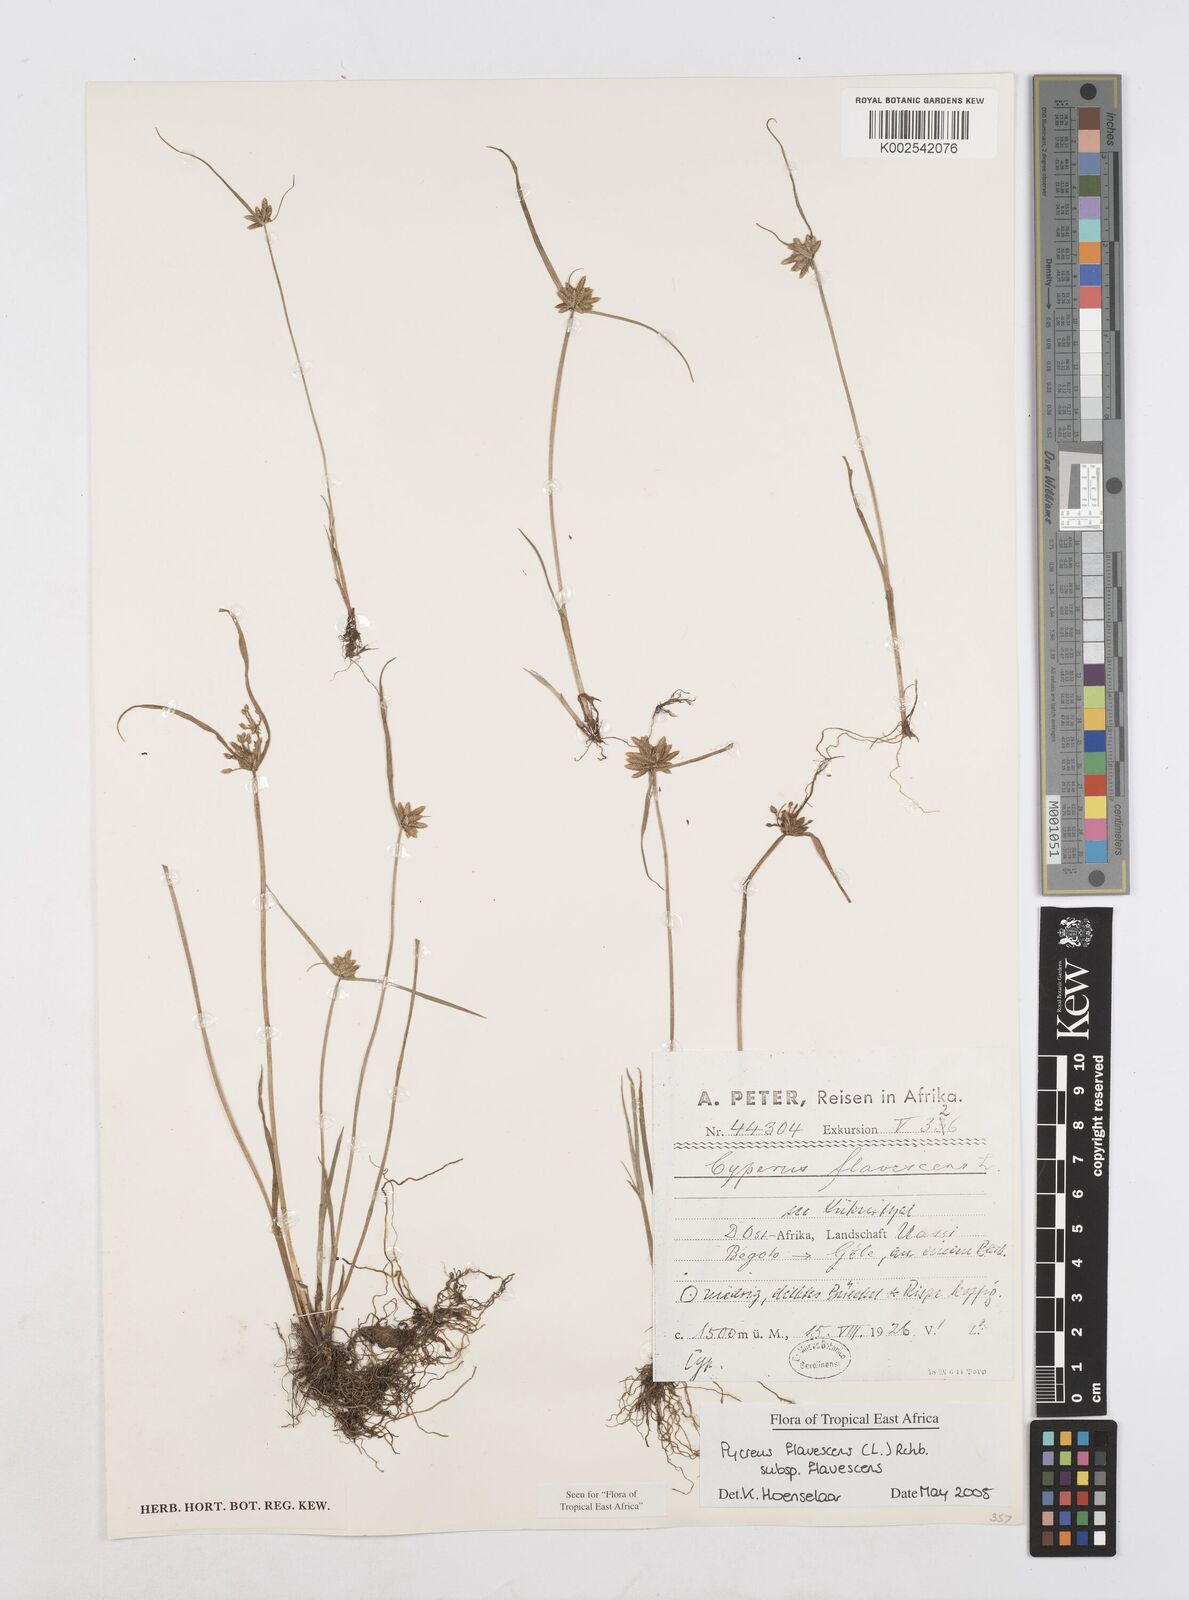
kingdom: Plantae
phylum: Tracheophyta
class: Liliopsida
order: Poales
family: Cyperaceae
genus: Cyperus
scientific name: Cyperus flavescens
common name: Yellow galingale
